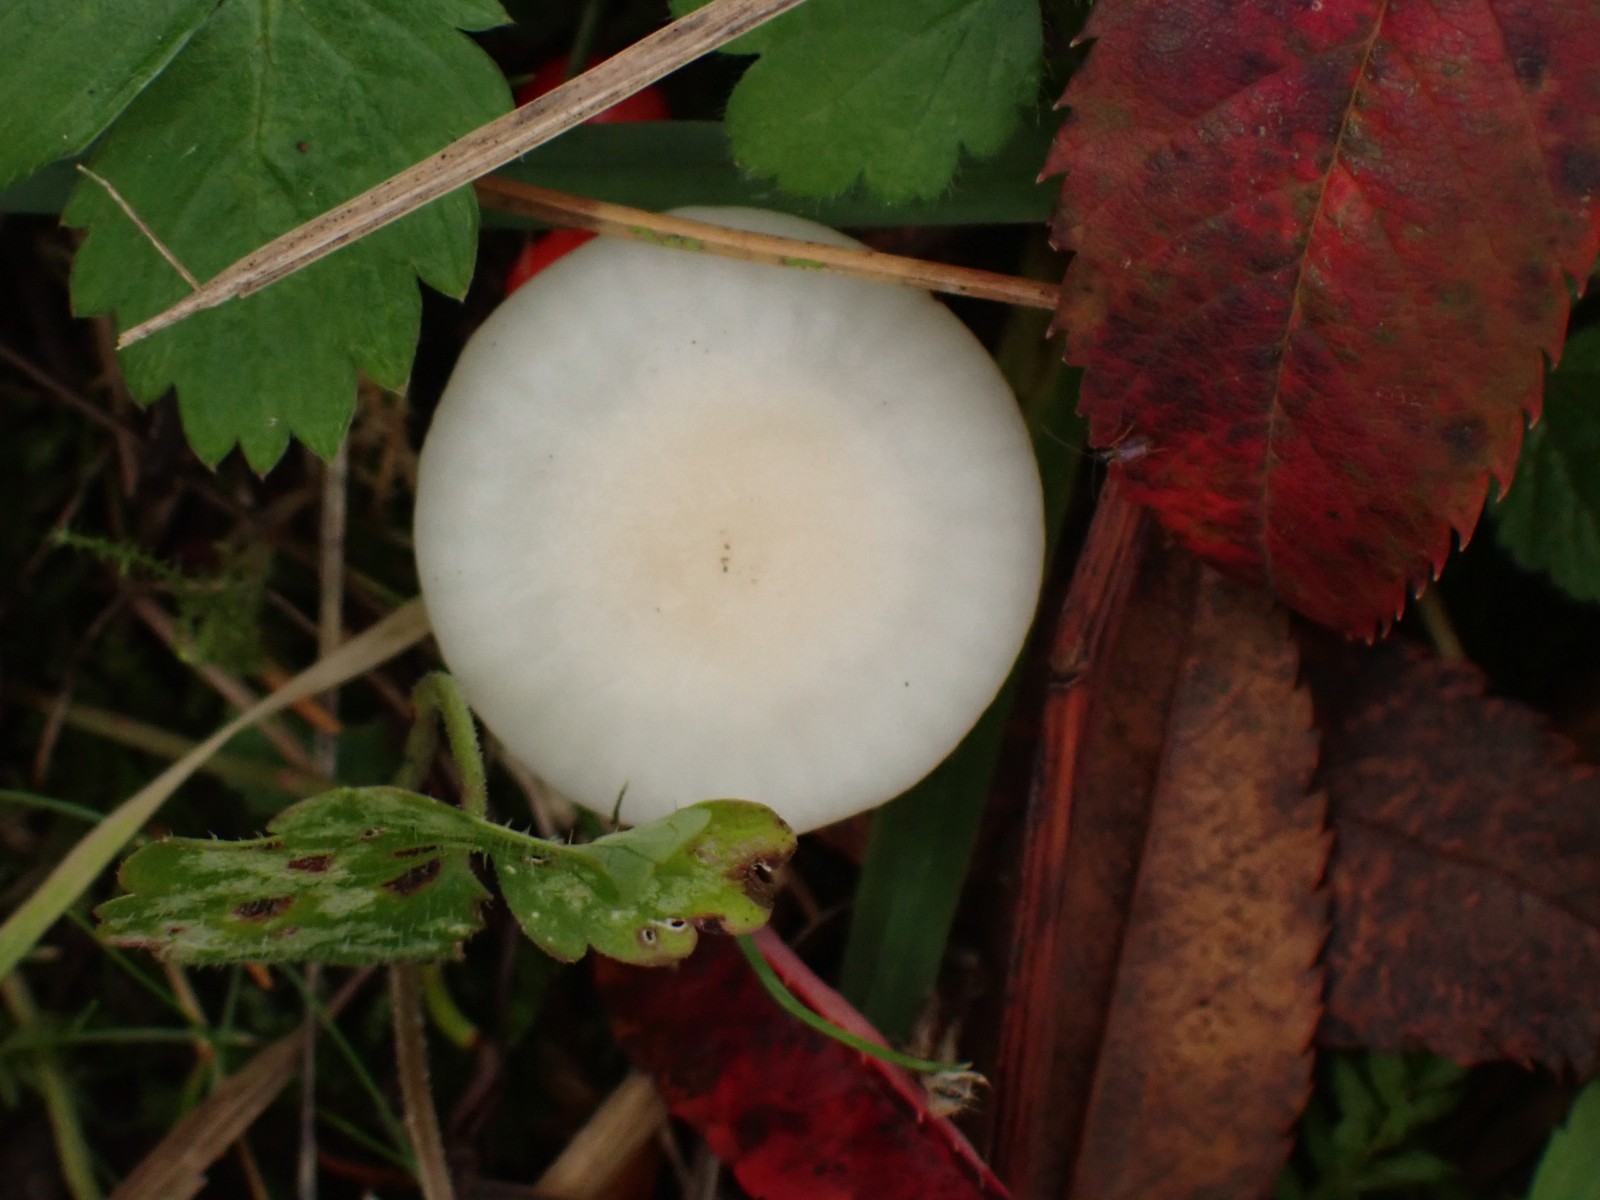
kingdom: Fungi
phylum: Basidiomycota
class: Agaricomycetes
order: Agaricales
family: Hygrophoraceae
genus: Cuphophyllus
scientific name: Cuphophyllus virgineus
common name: snehvid vokshat
